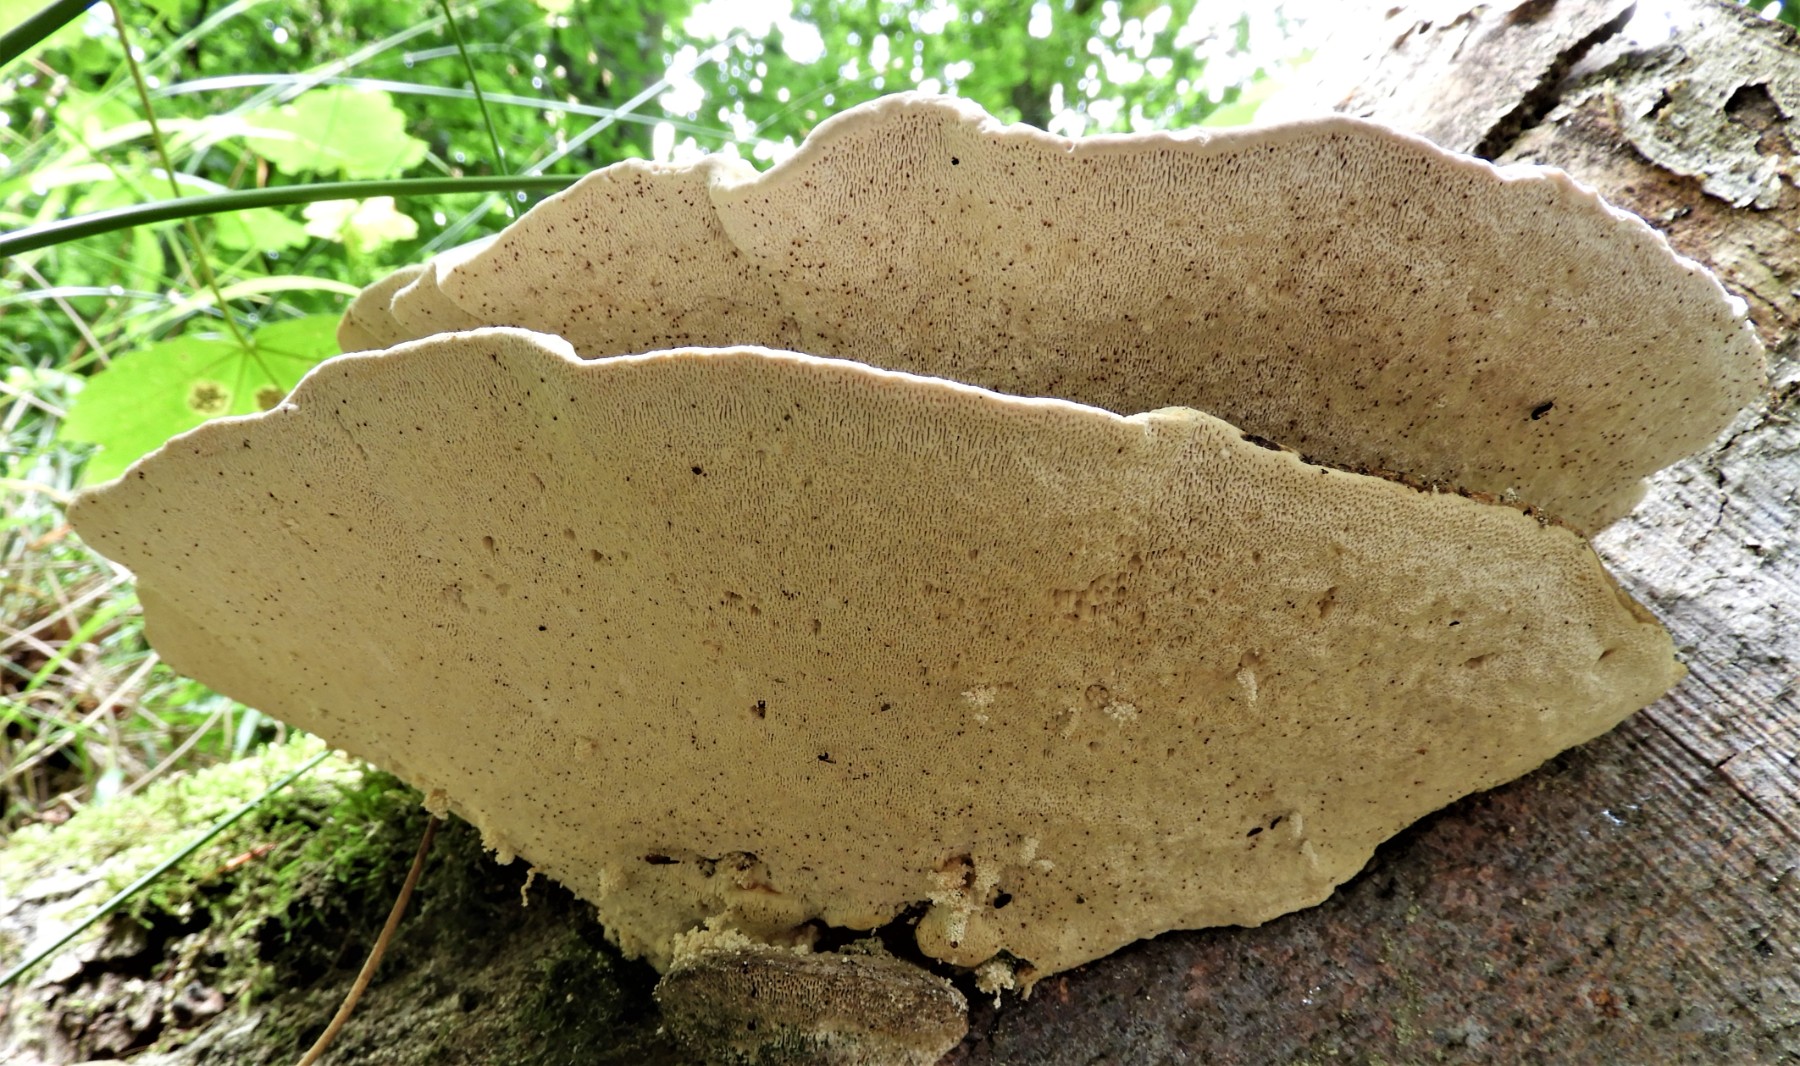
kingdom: Fungi
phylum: Basidiomycota
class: Agaricomycetes
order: Polyporales
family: Polyporaceae
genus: Trametes
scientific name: Trametes gibbosa
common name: puklet læderporesvamp
